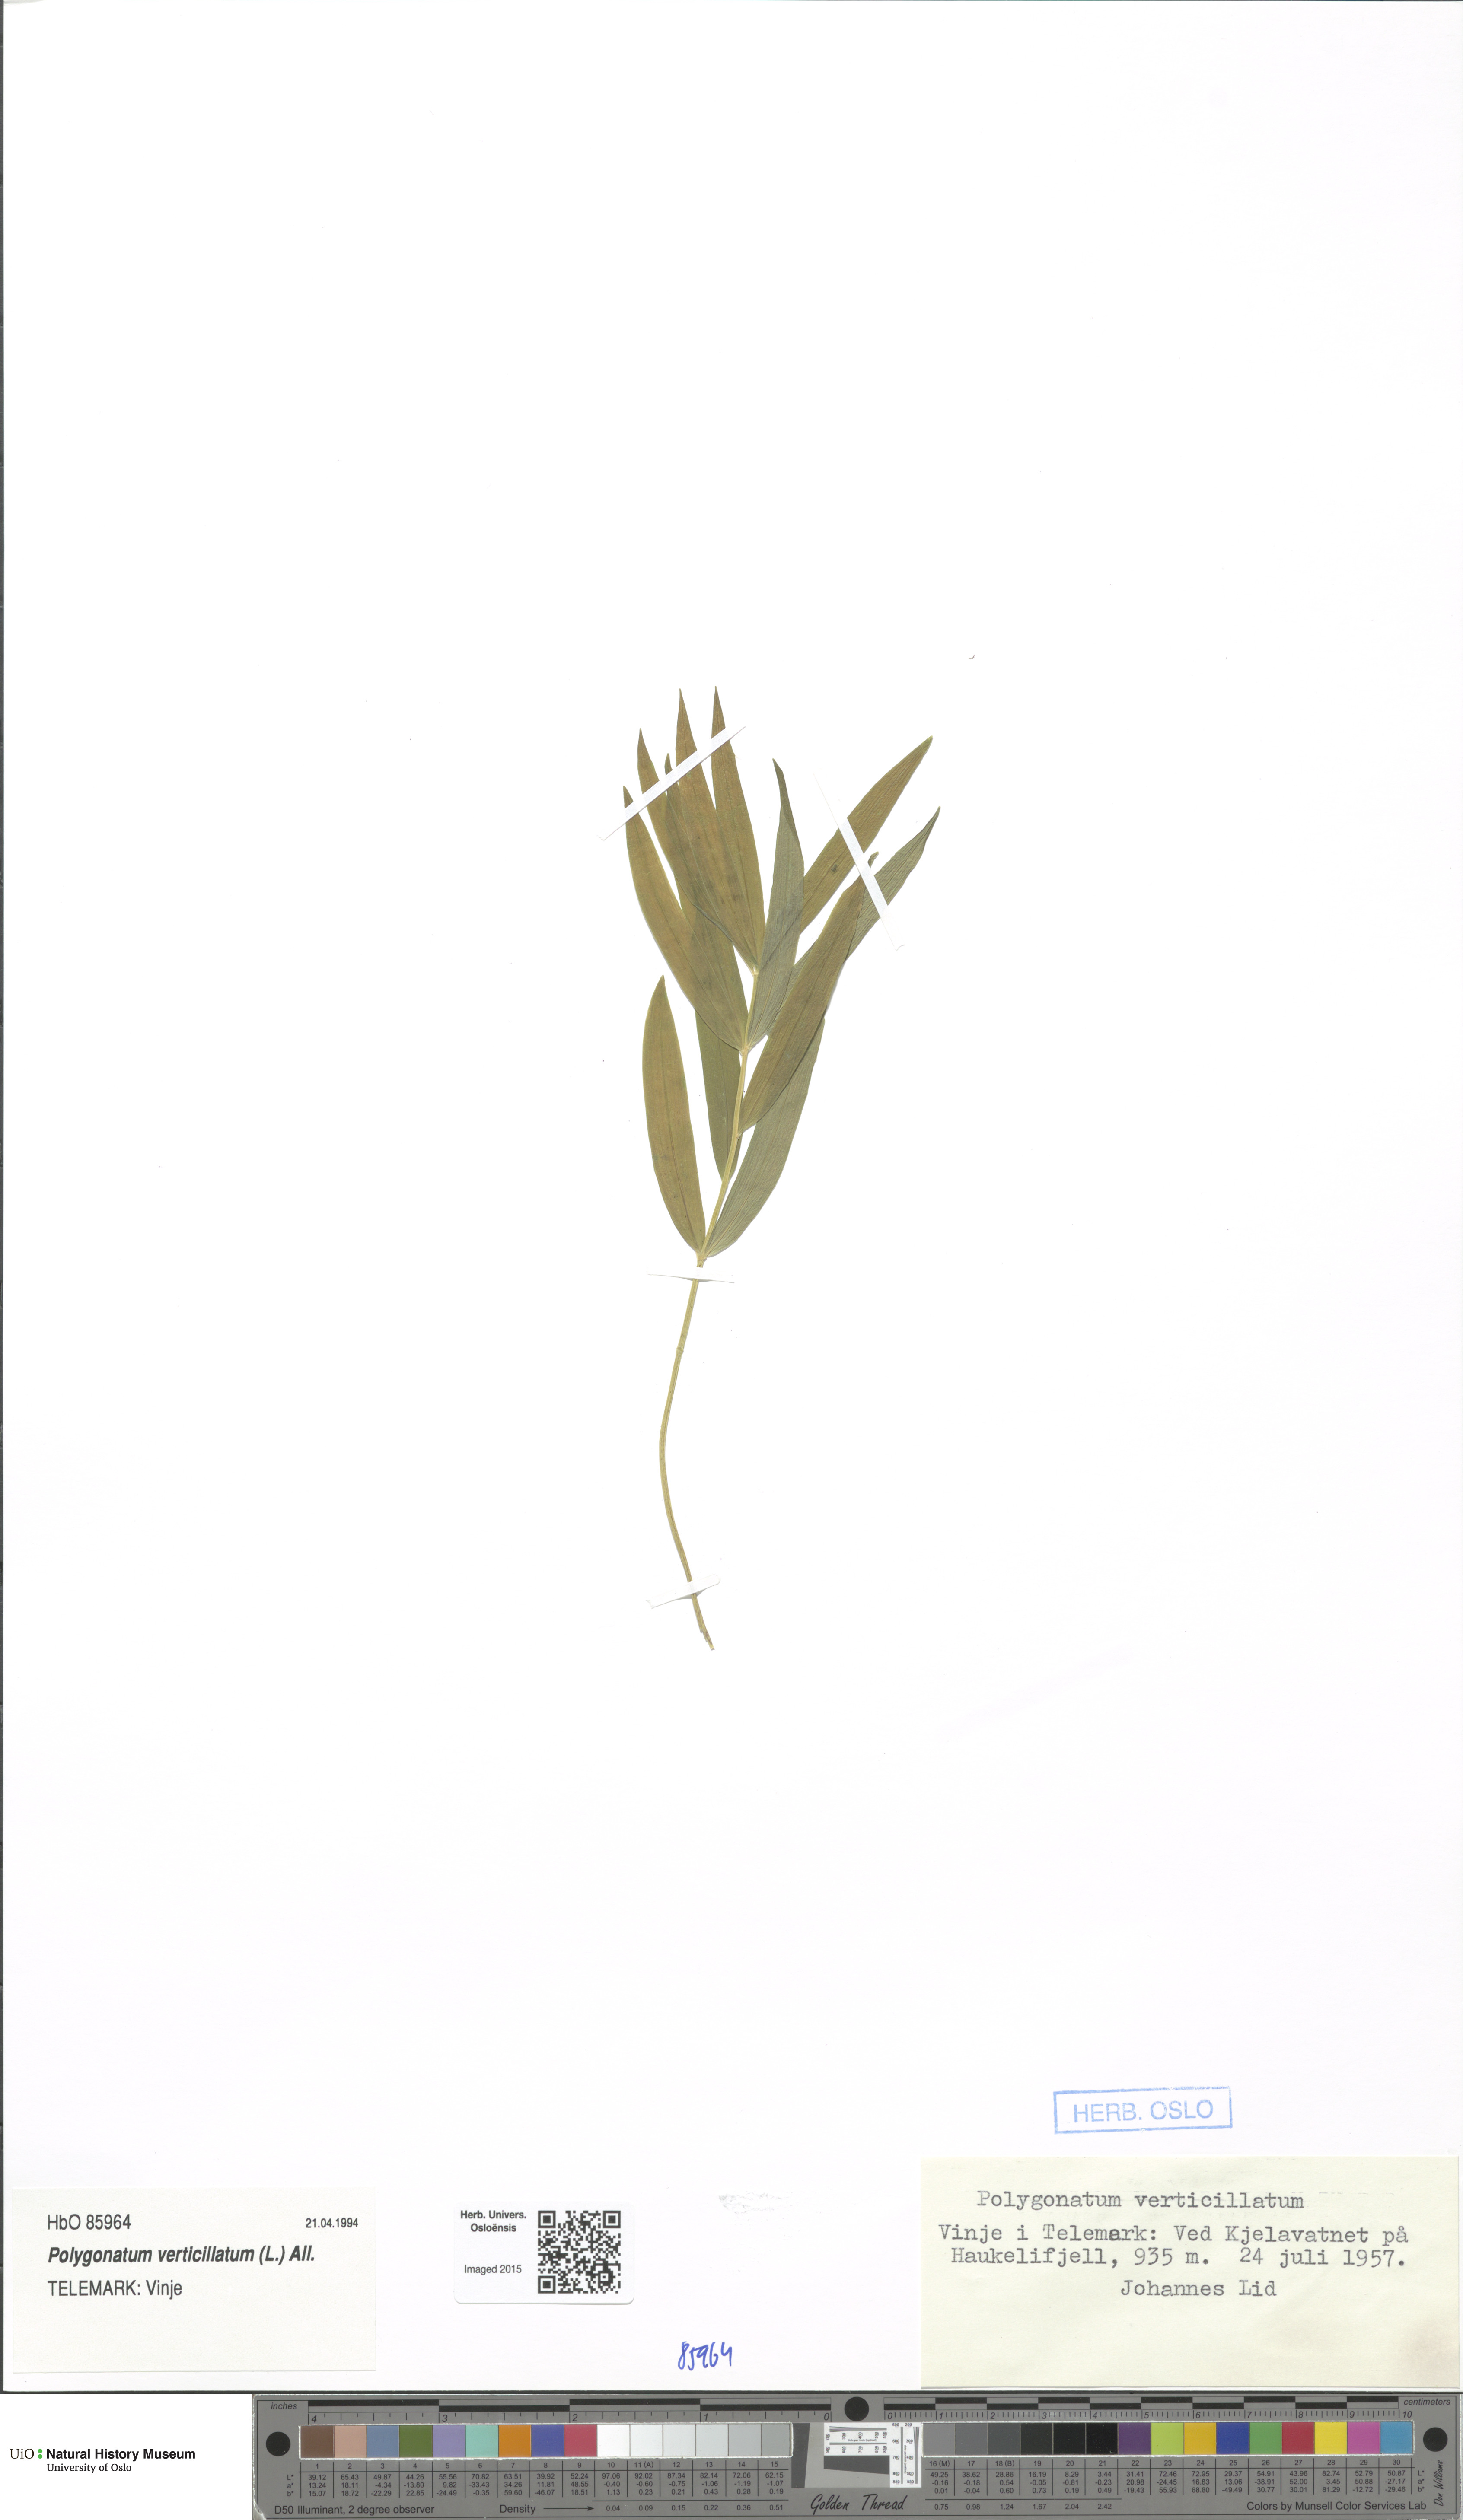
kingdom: Plantae
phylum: Tracheophyta
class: Liliopsida
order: Asparagales
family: Asparagaceae
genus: Polygonatum
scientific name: Polygonatum verticillatum
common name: Whorled solomon's-seal
